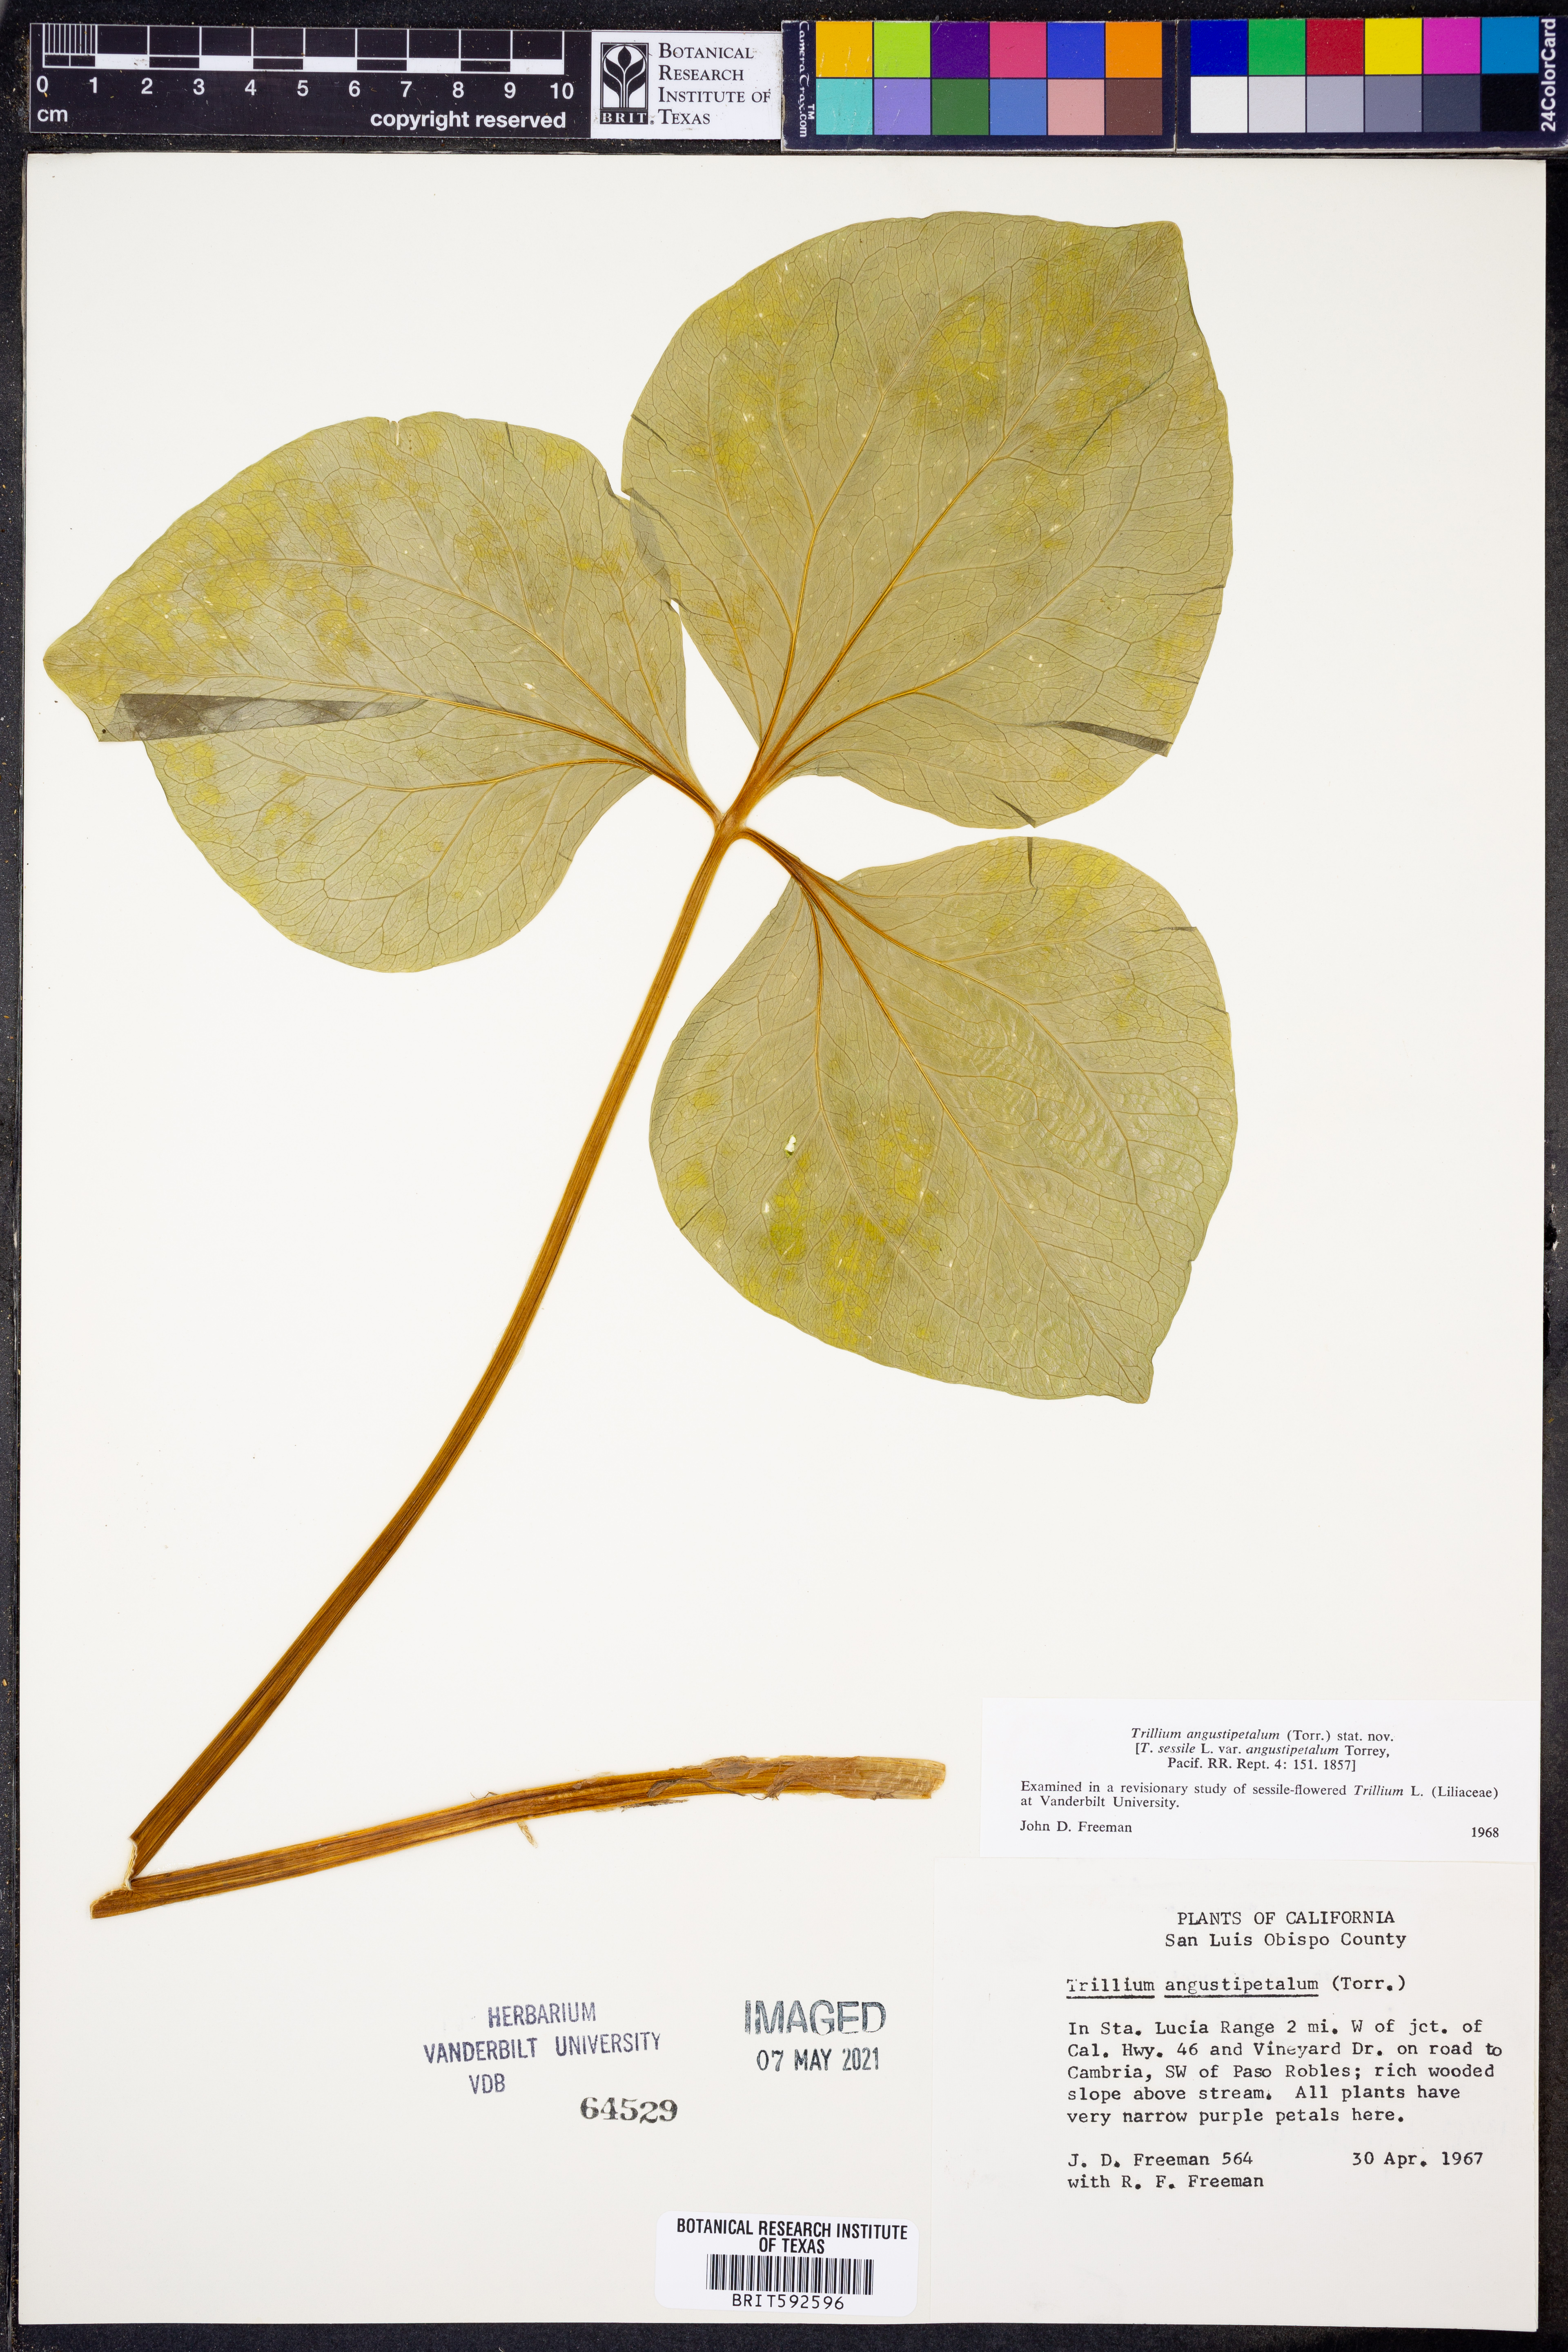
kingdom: Plantae
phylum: Tracheophyta
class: Liliopsida
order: Liliales
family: Melanthiaceae
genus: Trillium
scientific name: Trillium angustipetalum
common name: Narrow-petaled trillium
